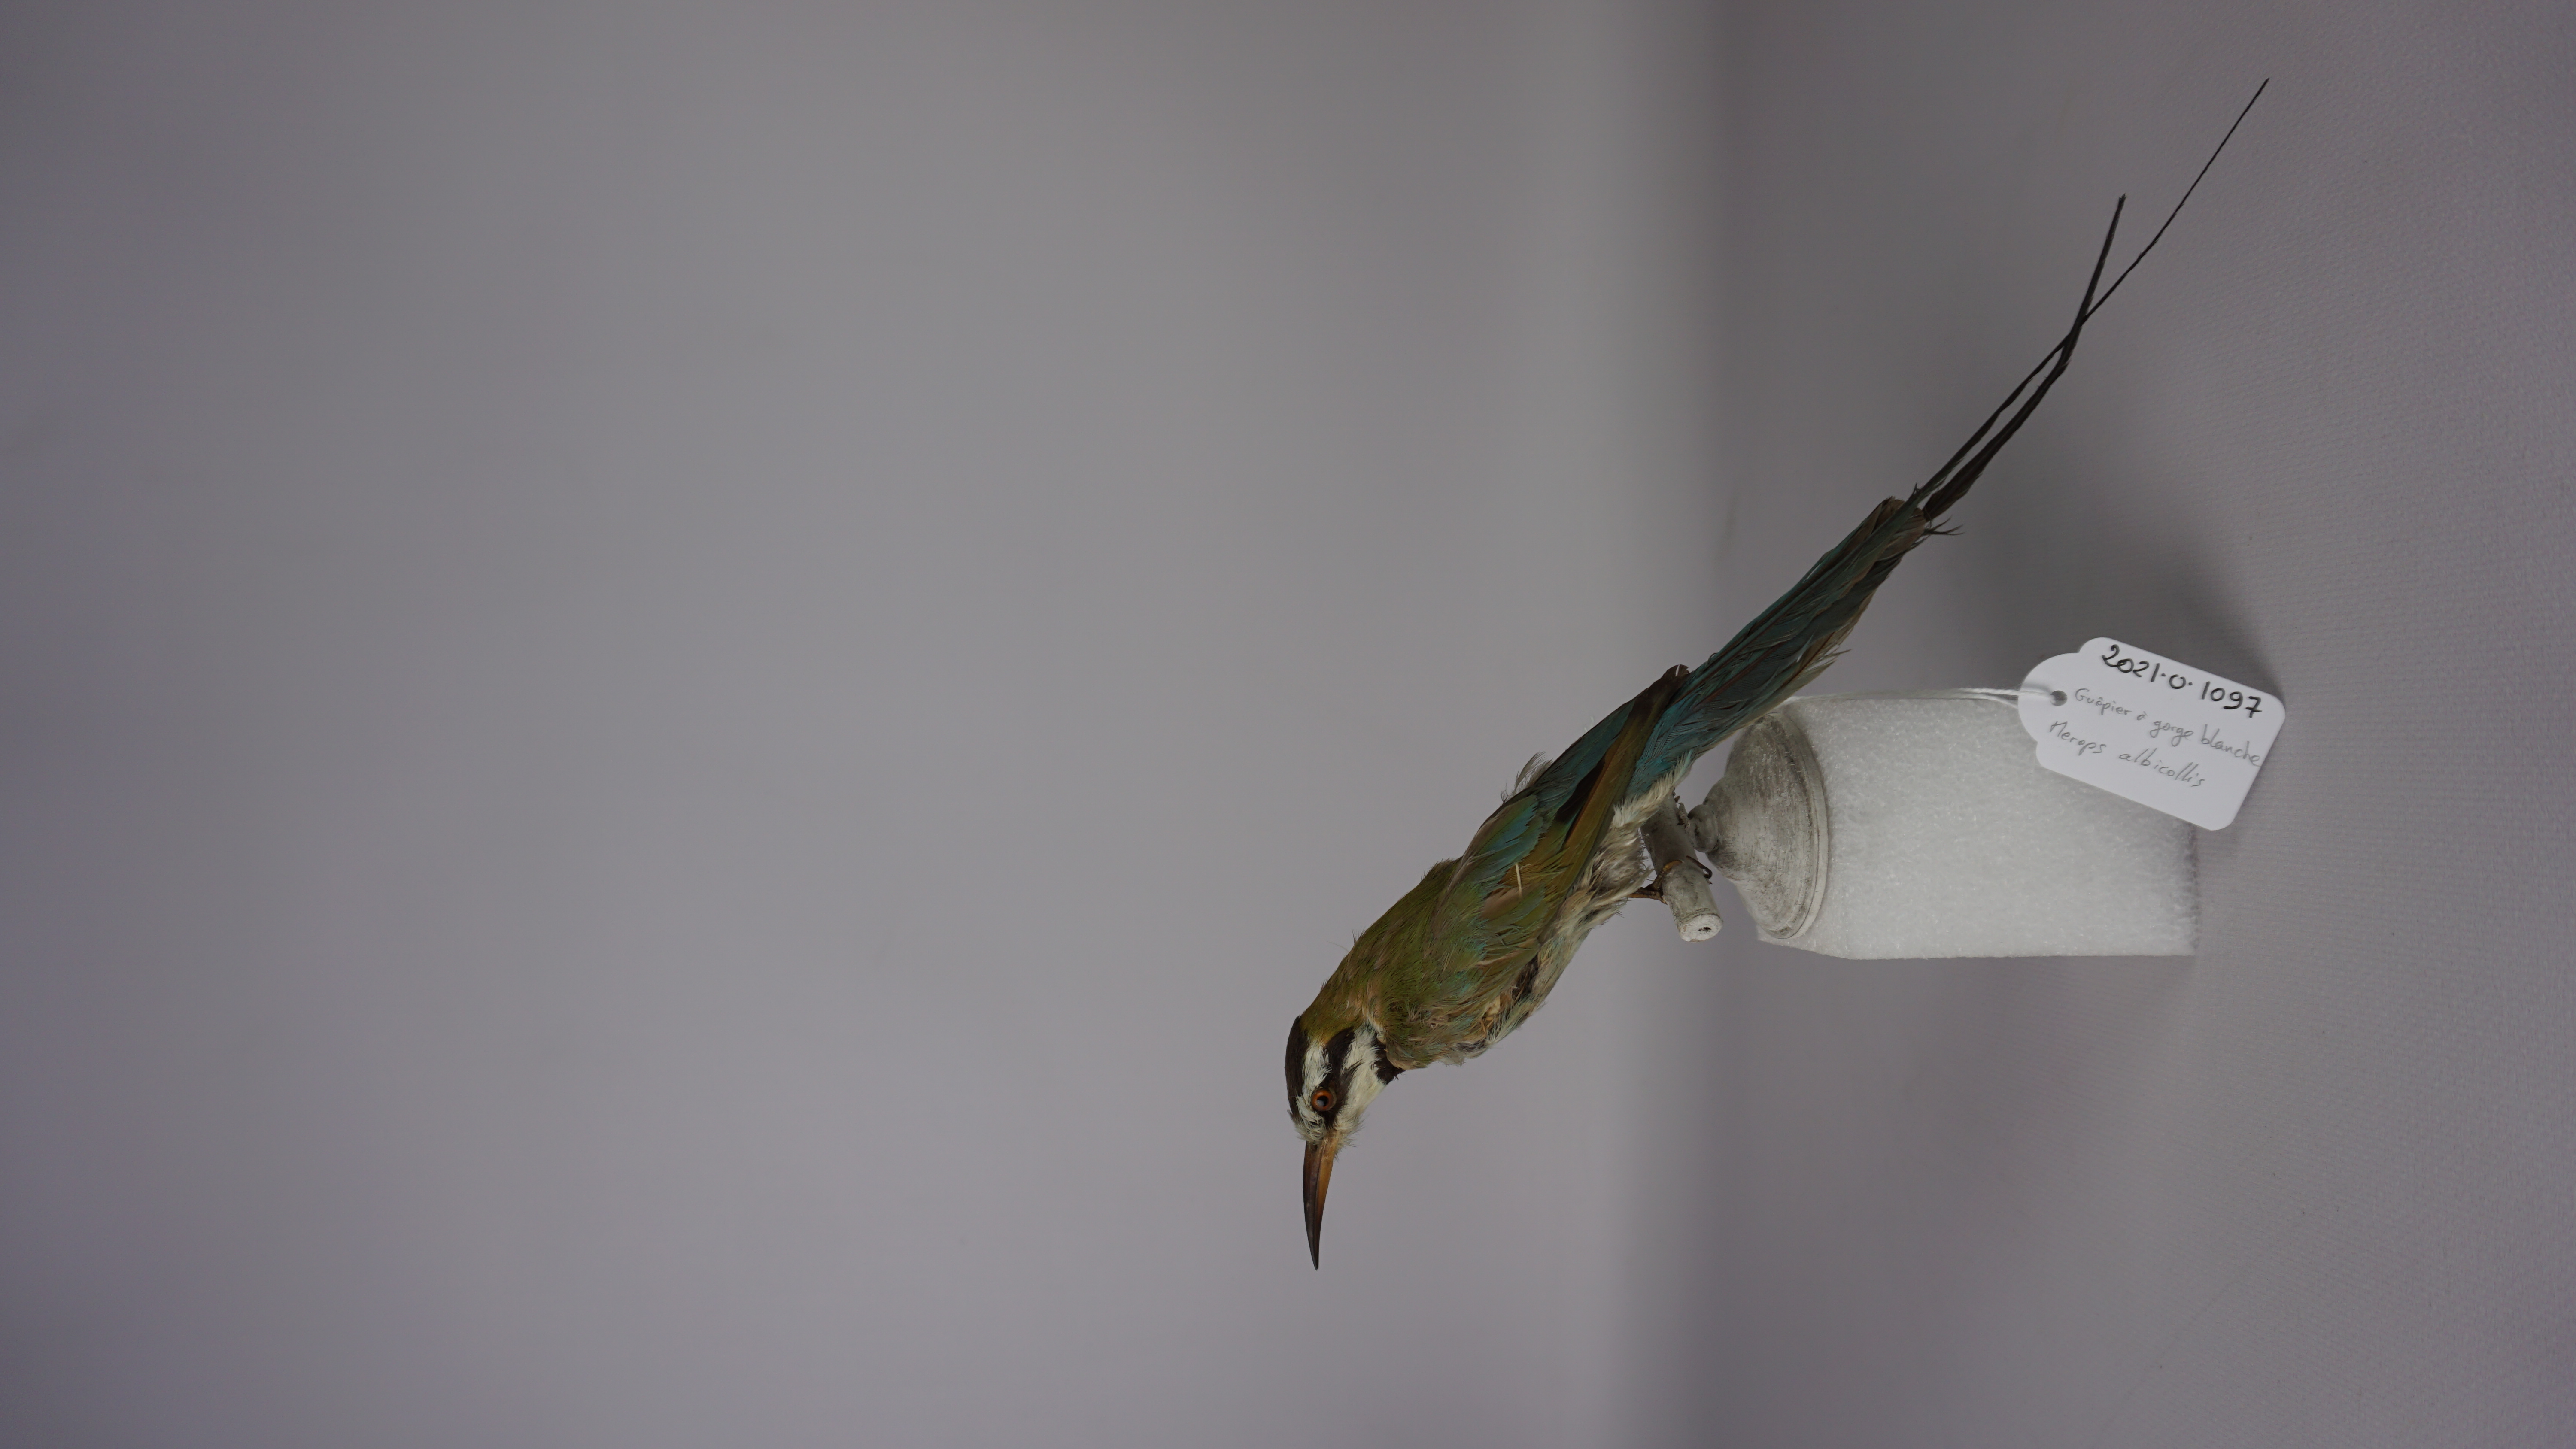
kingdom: Animalia
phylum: Chordata
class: Aves
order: Coraciiformes
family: Meropidae
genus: Merops
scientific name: Merops albicollis
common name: White-throated bee-eater
